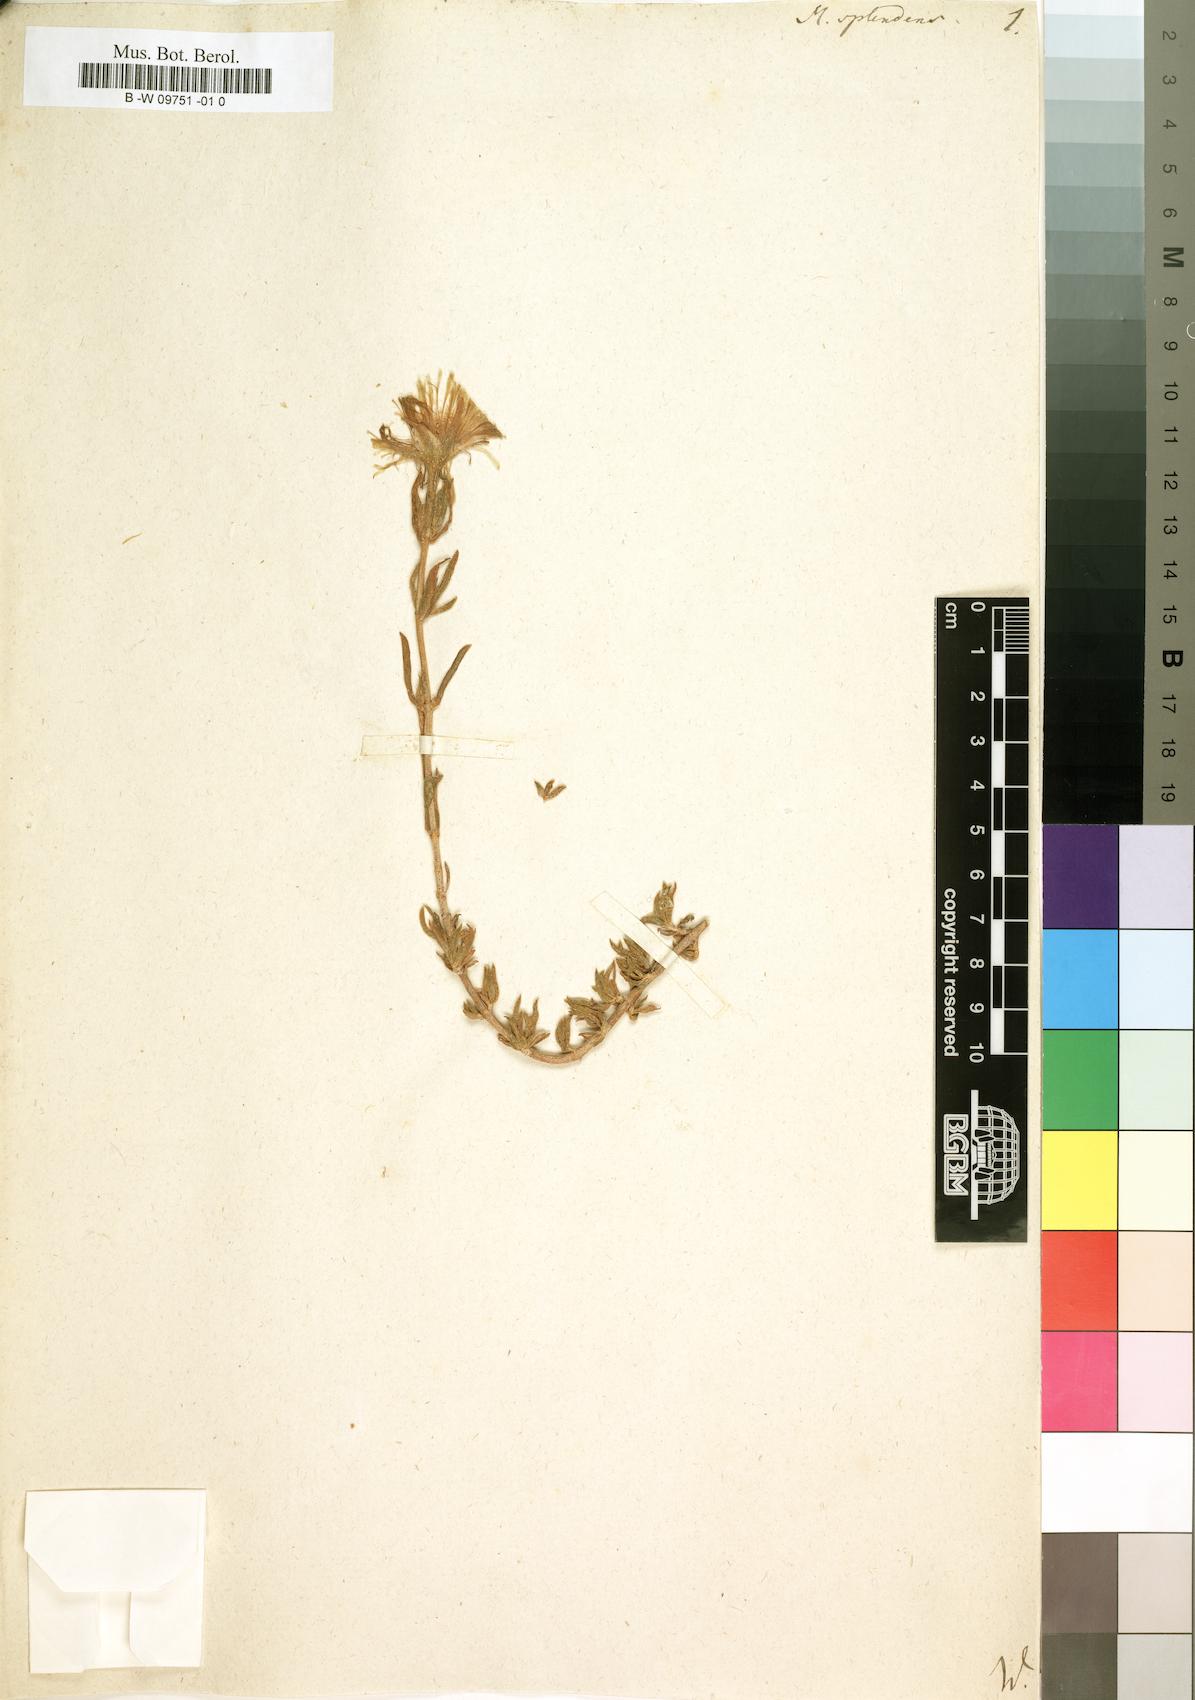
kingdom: Plantae
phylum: Tracheophyta
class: Magnoliopsida
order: Caryophyllales
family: Aizoaceae
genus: Mesembryanthemum
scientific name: Mesembryanthemum splendens
